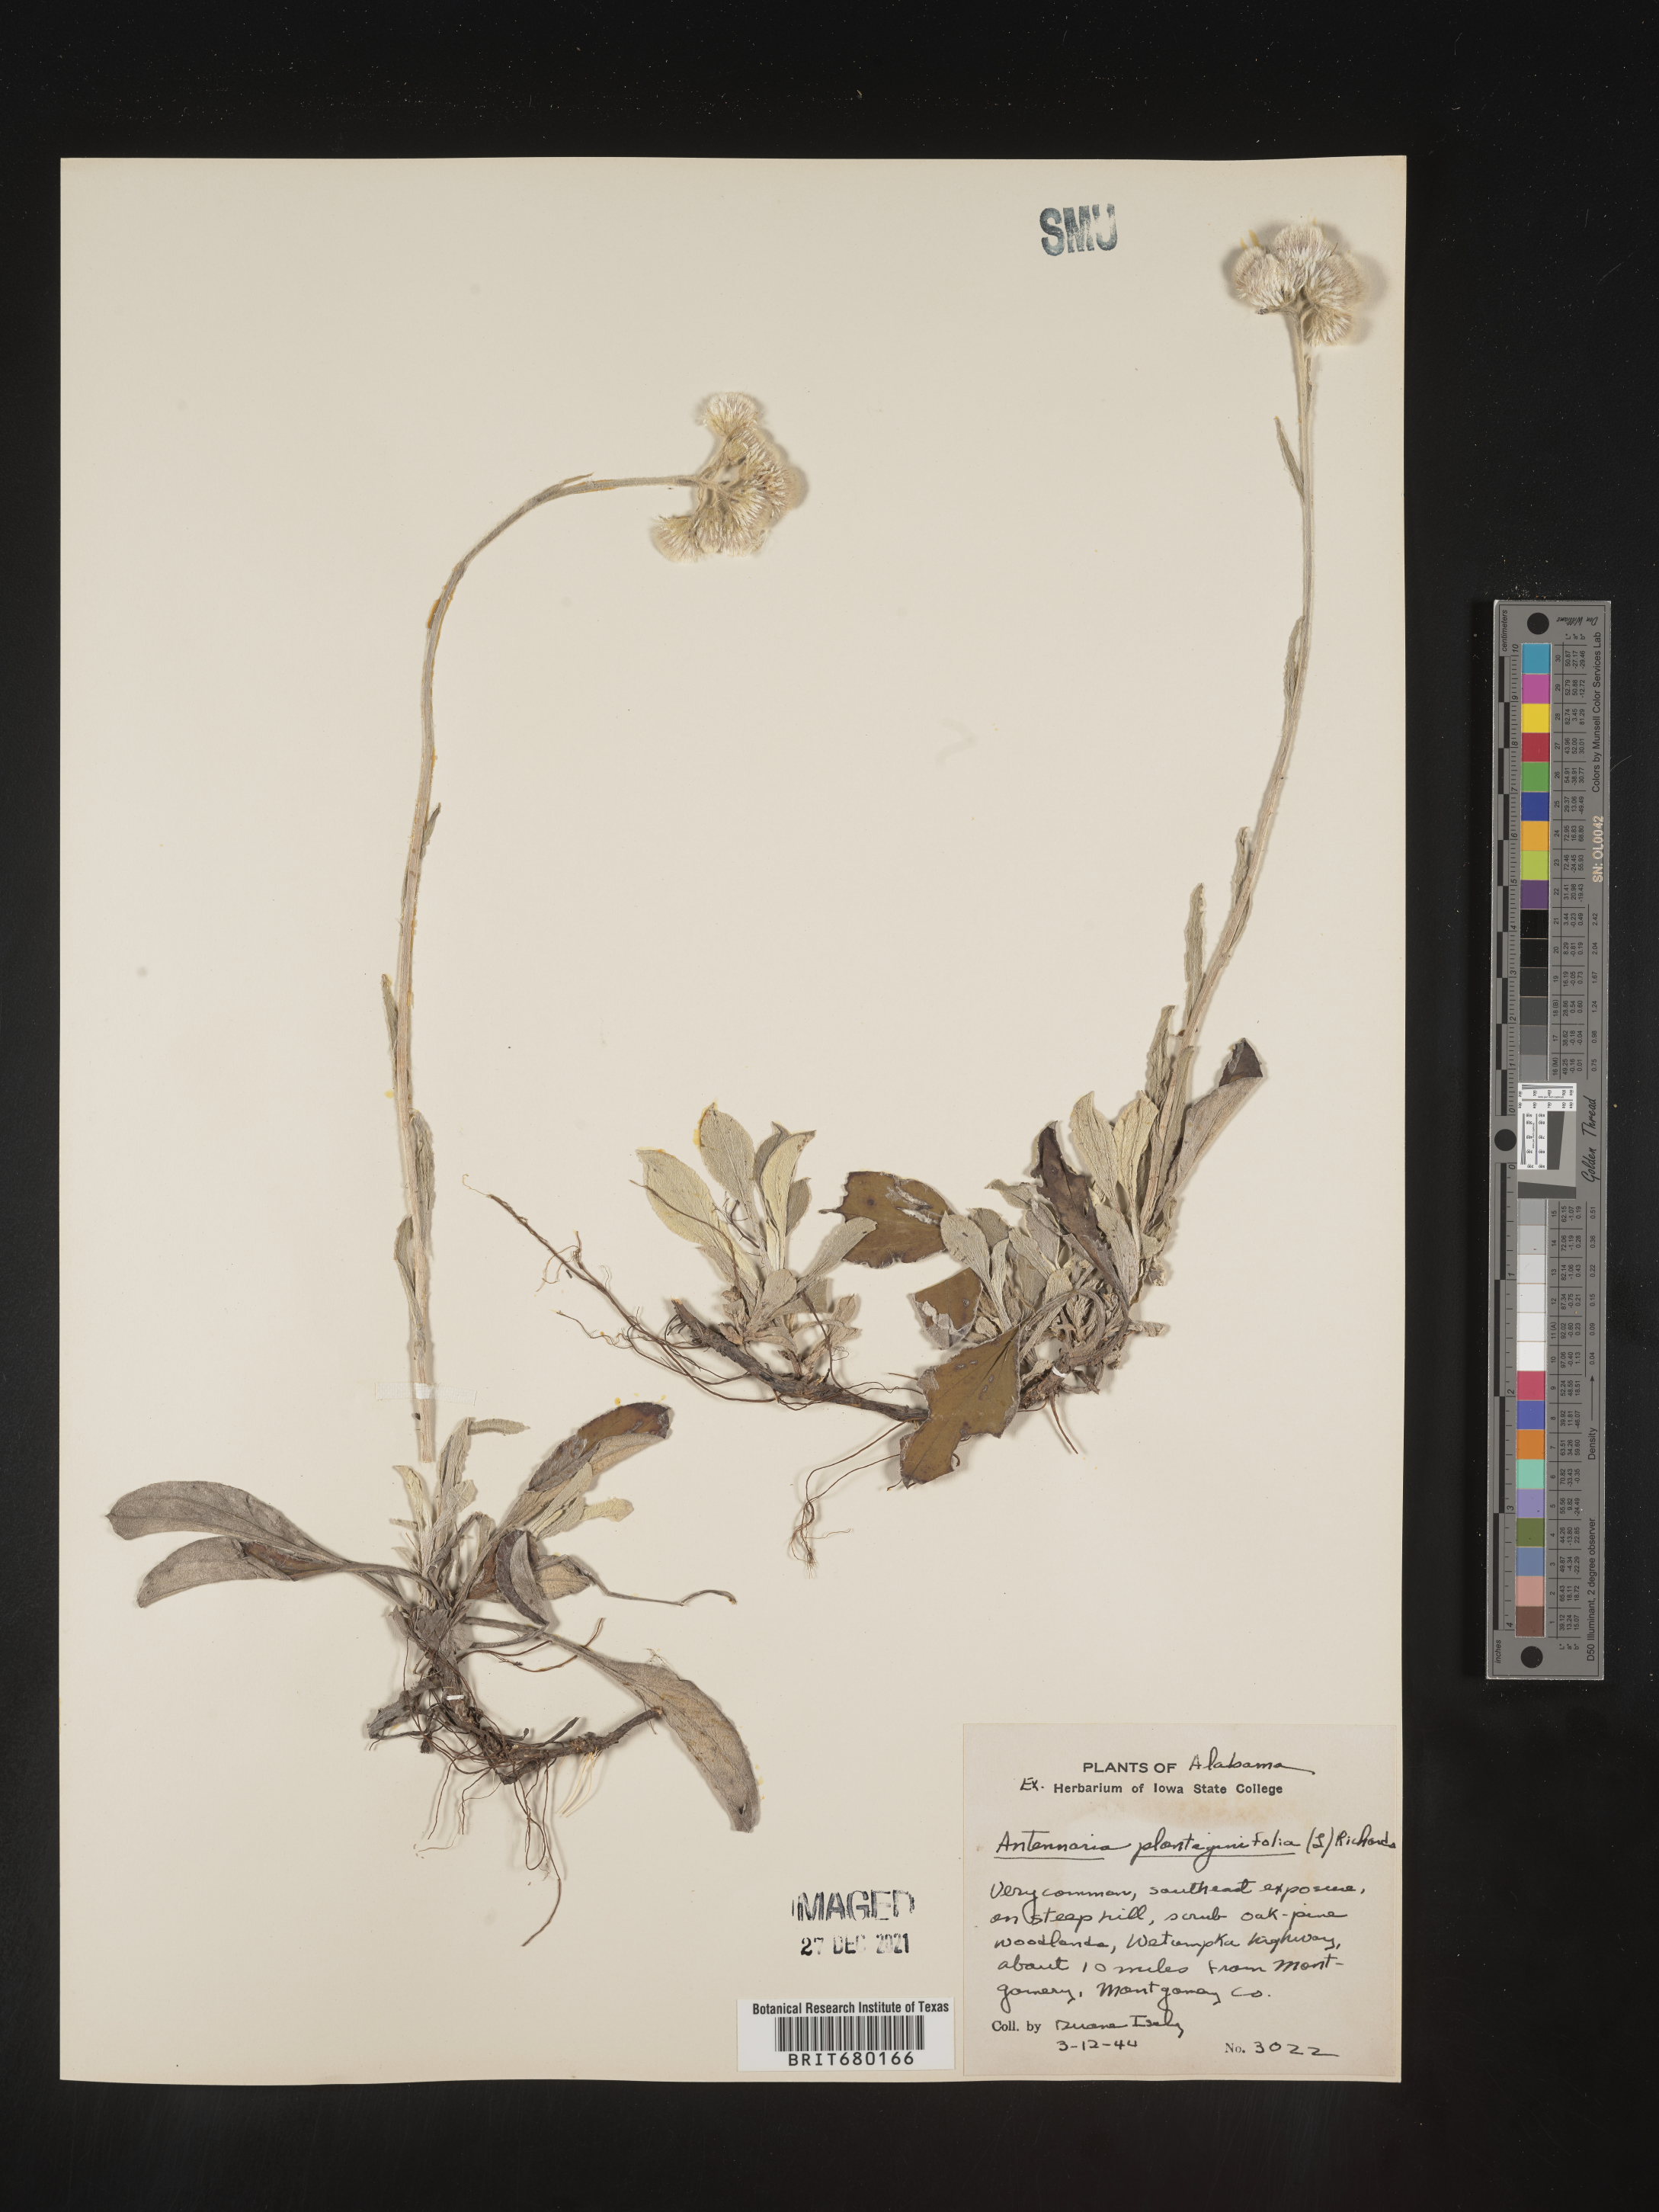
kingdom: Plantae
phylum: Tracheophyta
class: Magnoliopsida
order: Asterales
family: Asteraceae
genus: Antennaria
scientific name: Antennaria plantaginifolia
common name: Plantain-leaved pussytoes
